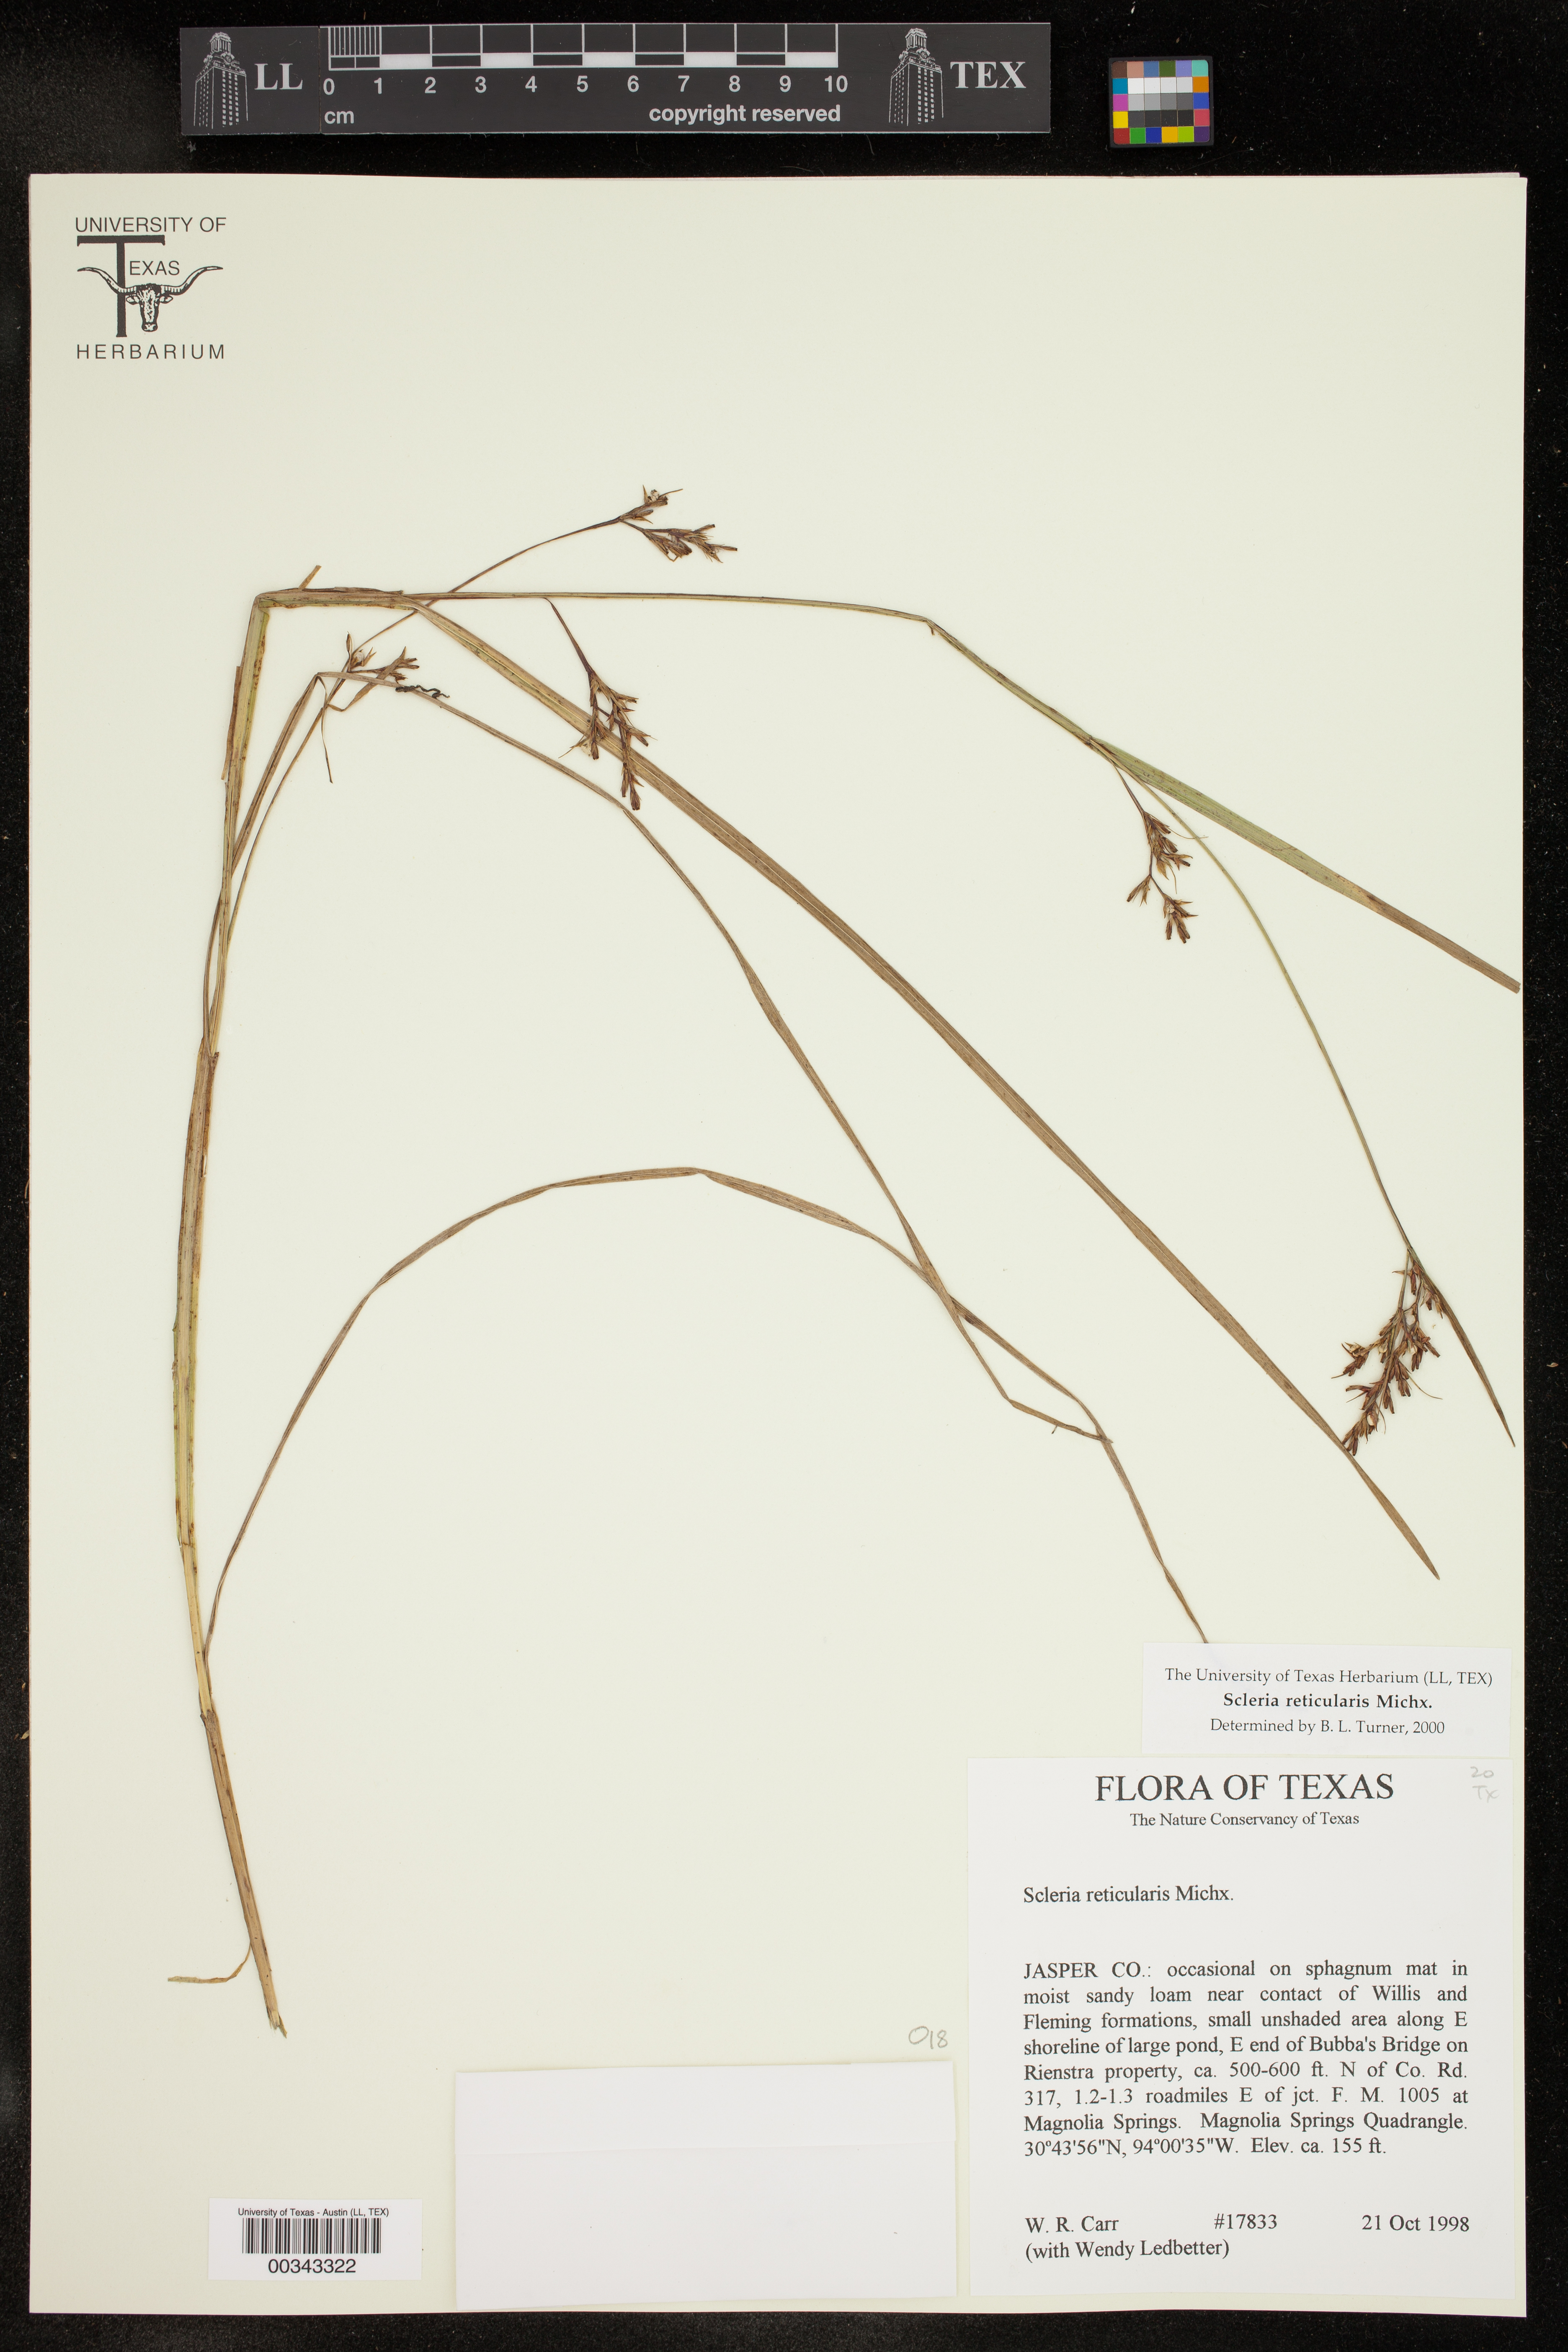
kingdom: Plantae
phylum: Tracheophyta
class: Liliopsida
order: Poales
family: Cyperaceae
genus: Scleria
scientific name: Scleria reticularis
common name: Netted nutrush
